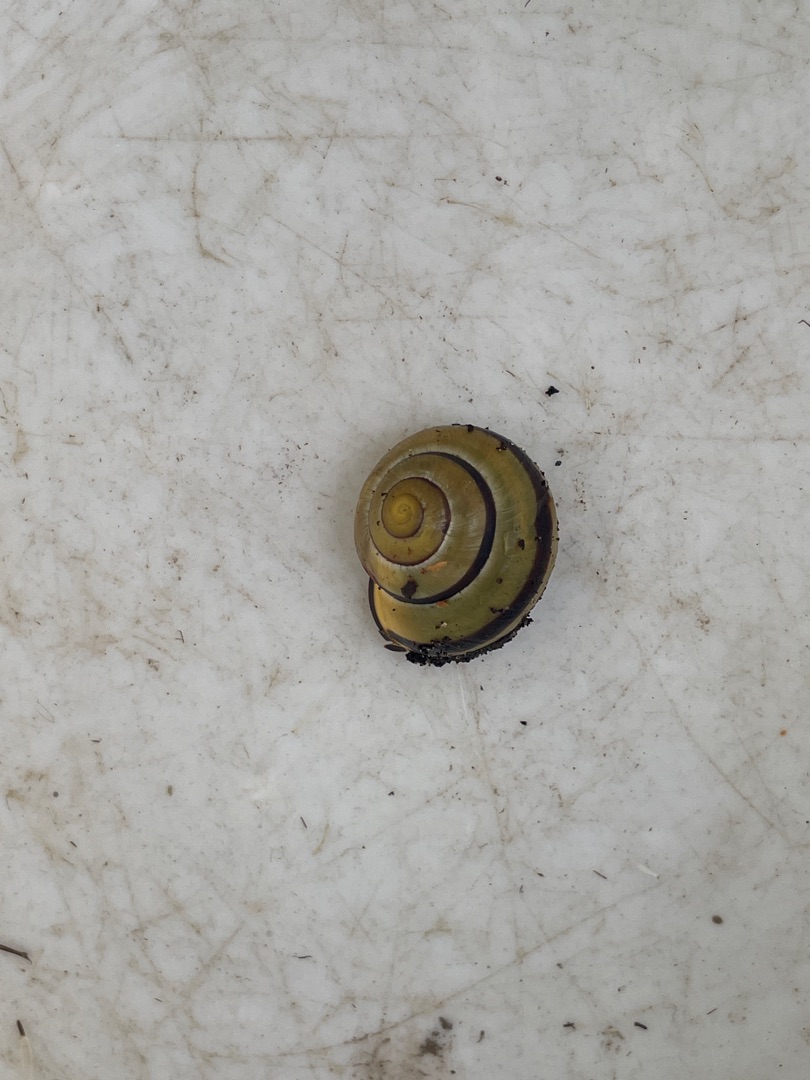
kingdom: Animalia
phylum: Mollusca
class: Gastropoda
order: Stylommatophora
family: Helicidae
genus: Cepaea
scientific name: Cepaea nemoralis
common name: Lundsnegl
